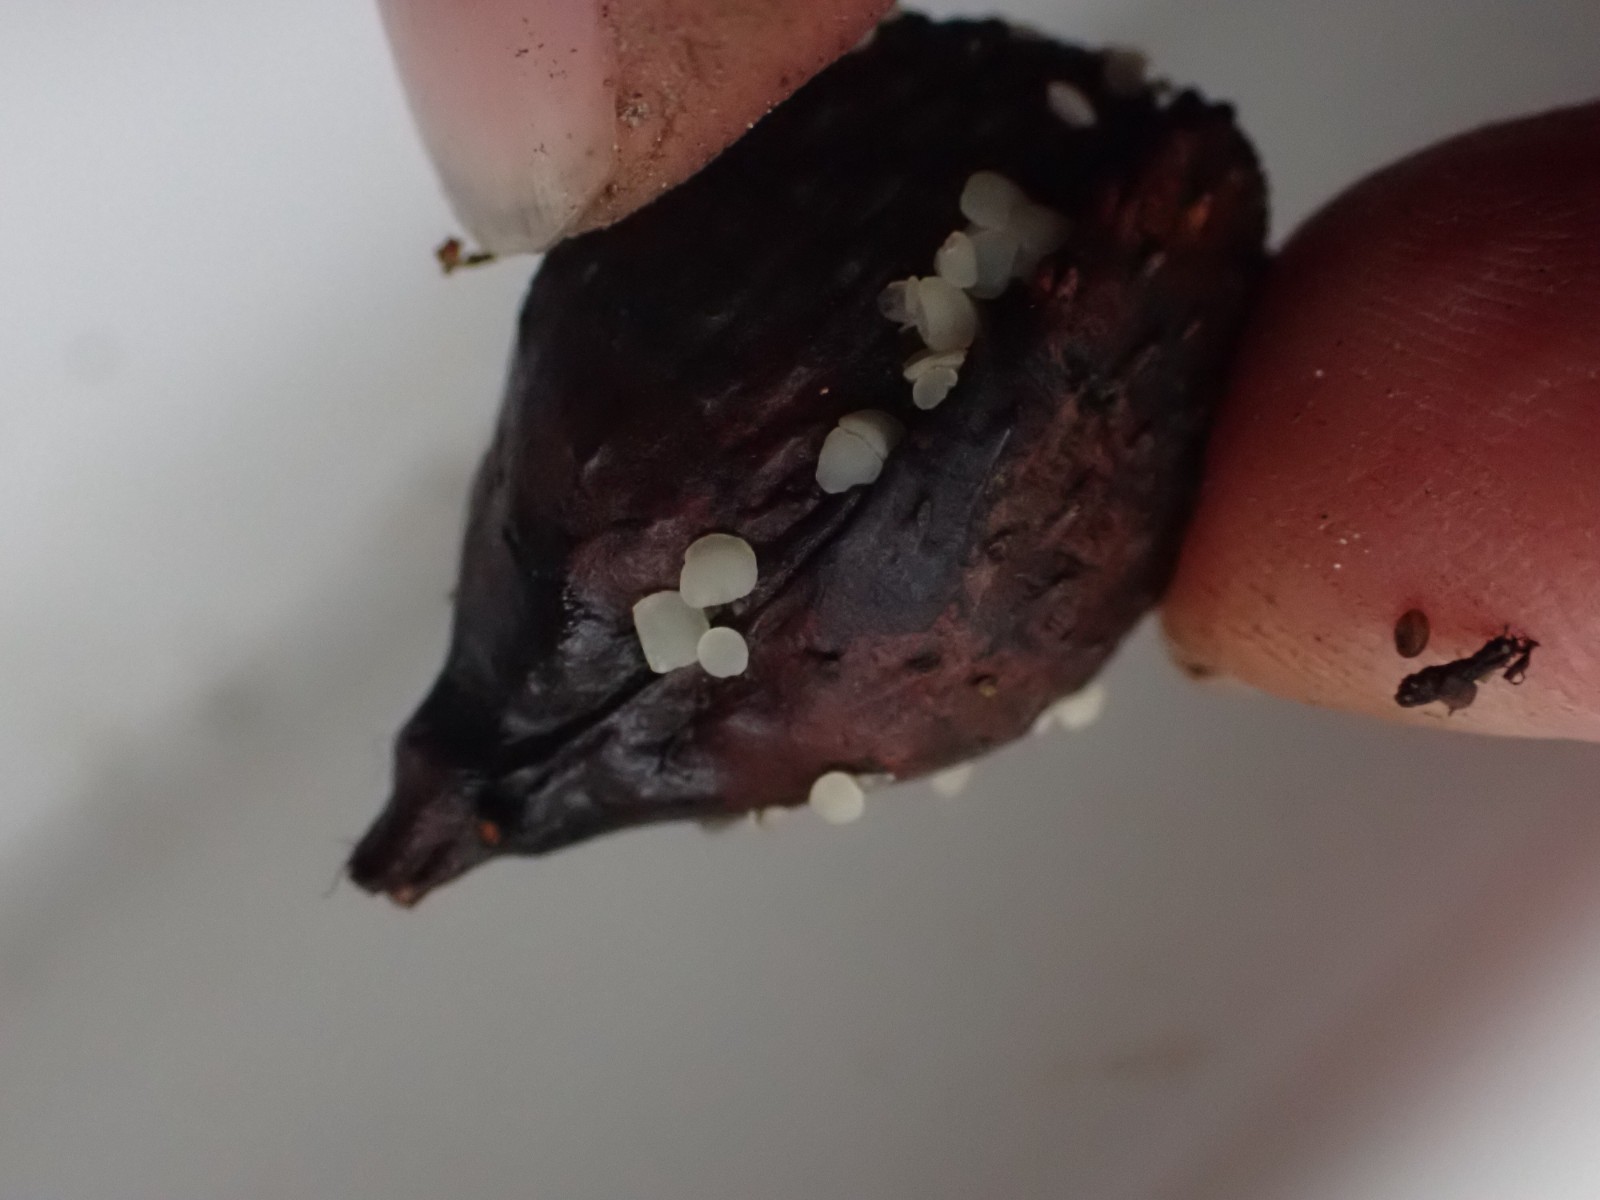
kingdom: Fungi
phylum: Ascomycota
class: Leotiomycetes
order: Helotiales
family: Helotiaceae
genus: Hymenoscyphus
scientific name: Hymenoscyphus fagineus
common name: vellugtende stilkskive
